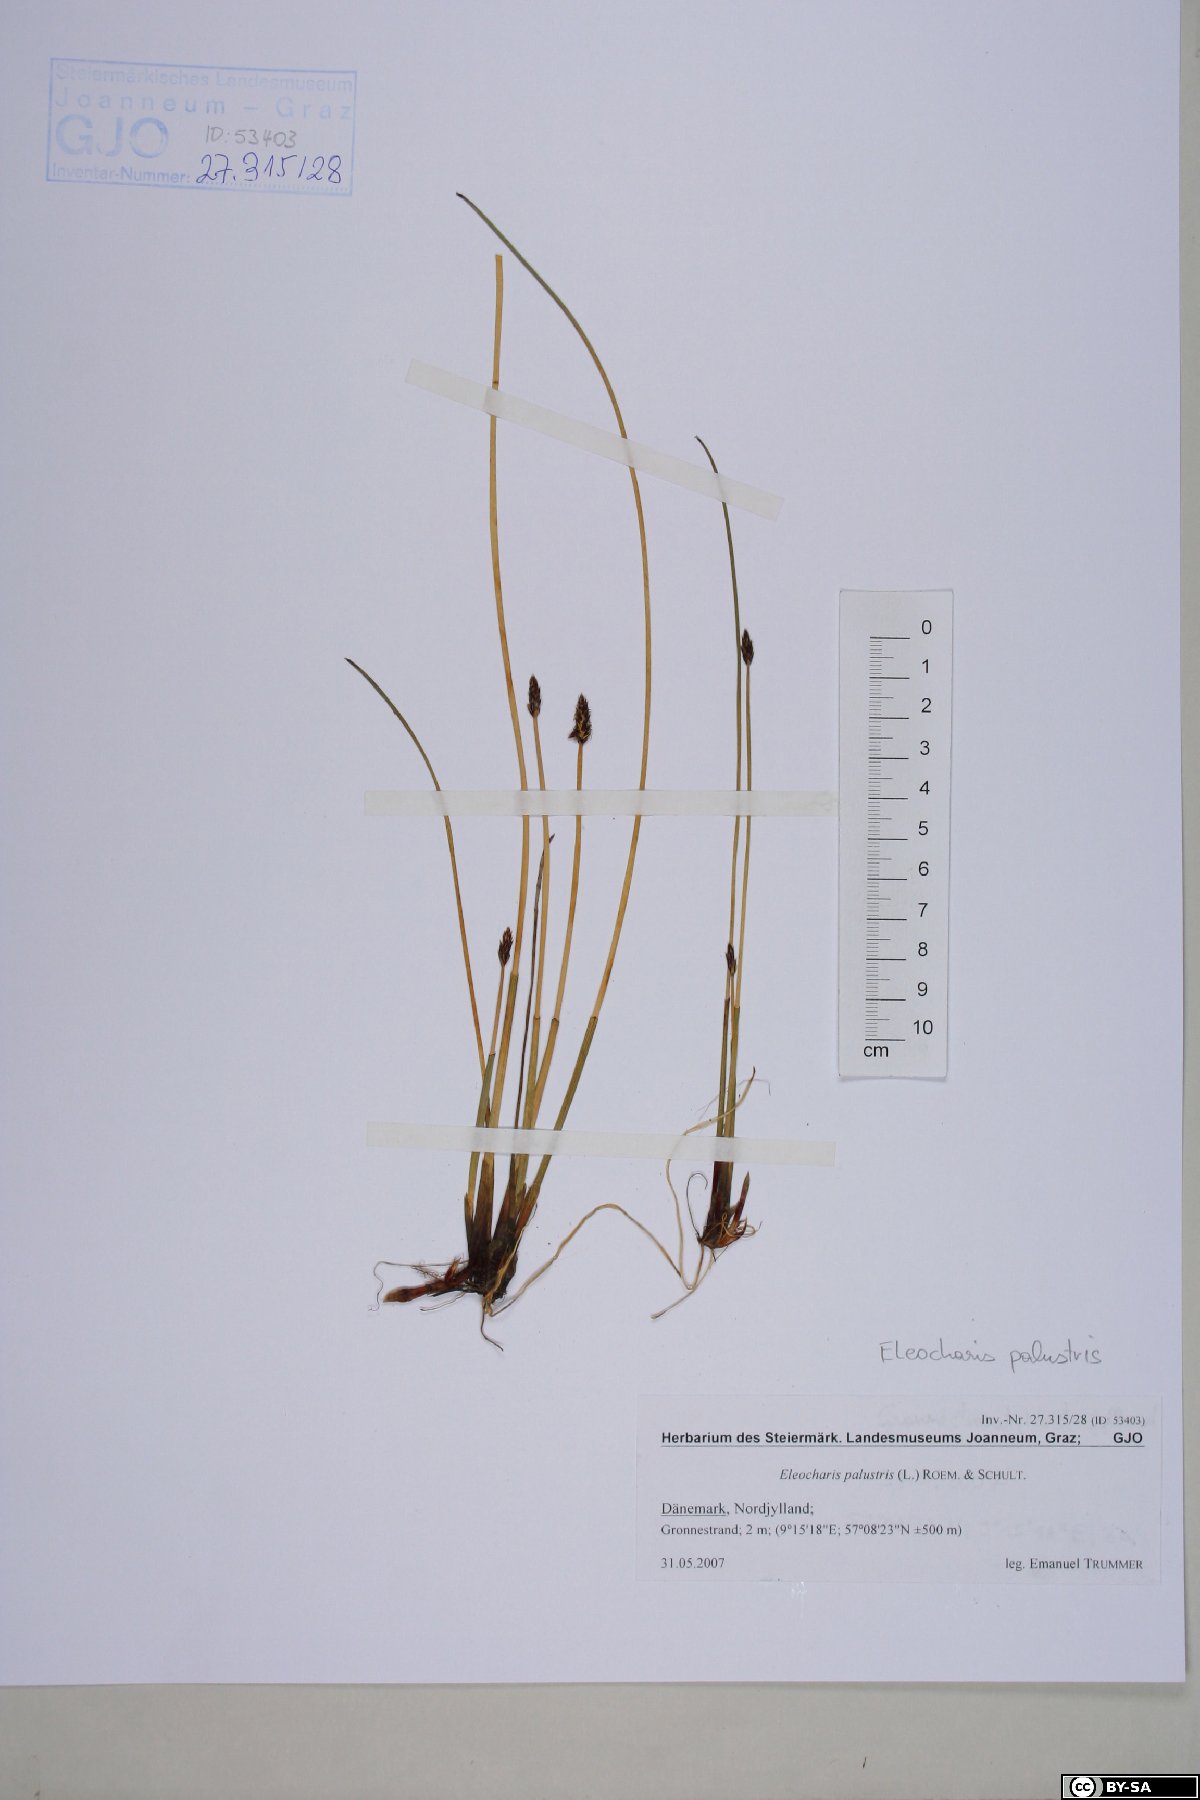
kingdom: Plantae
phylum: Tracheophyta
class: Liliopsida
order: Poales
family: Cyperaceae
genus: Eleocharis
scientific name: Eleocharis palustris
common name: Common spike-rush
